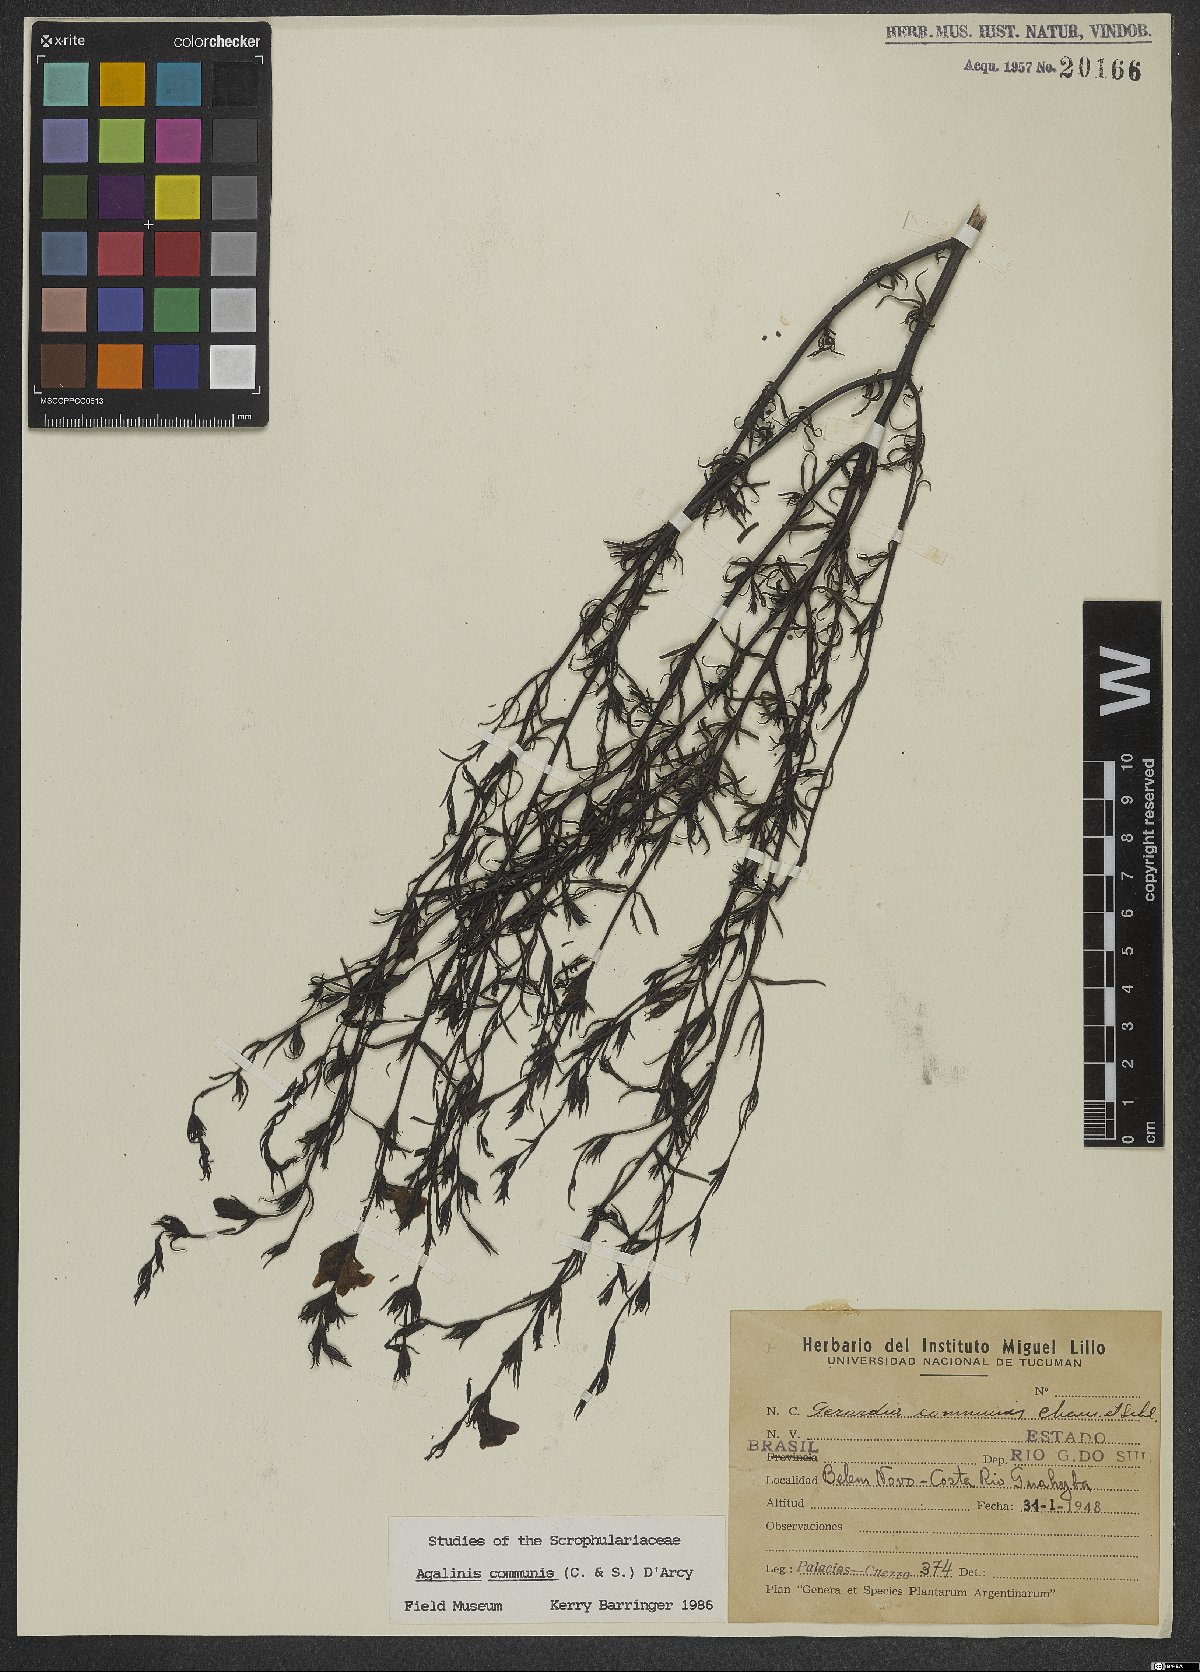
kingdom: Plantae
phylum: Tracheophyta
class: Magnoliopsida
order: Lamiales
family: Scrophulariaceae
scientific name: Scrophulariaceae
